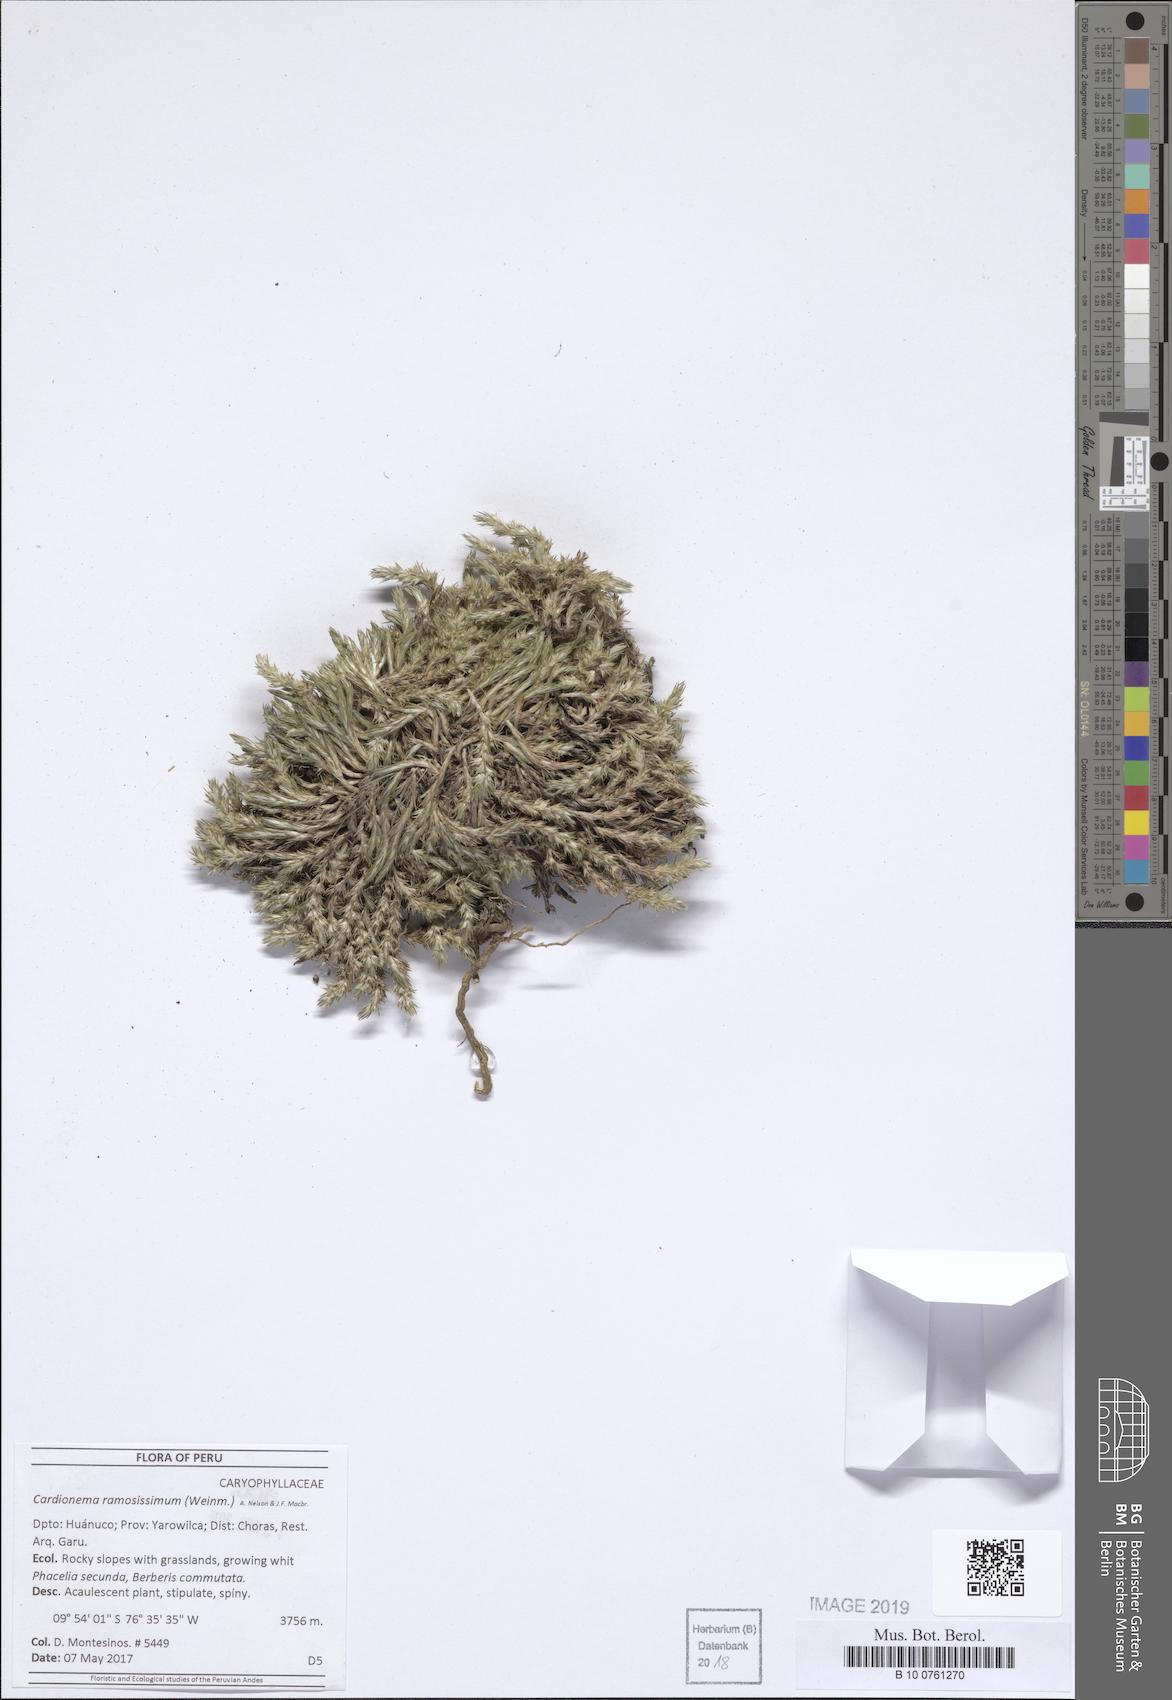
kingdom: Plantae
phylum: Tracheophyta
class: Magnoliopsida
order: Caryophyllales
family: Caryophyllaceae
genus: Cardionema
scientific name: Cardionema ramosissima
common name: Sandcarpet
